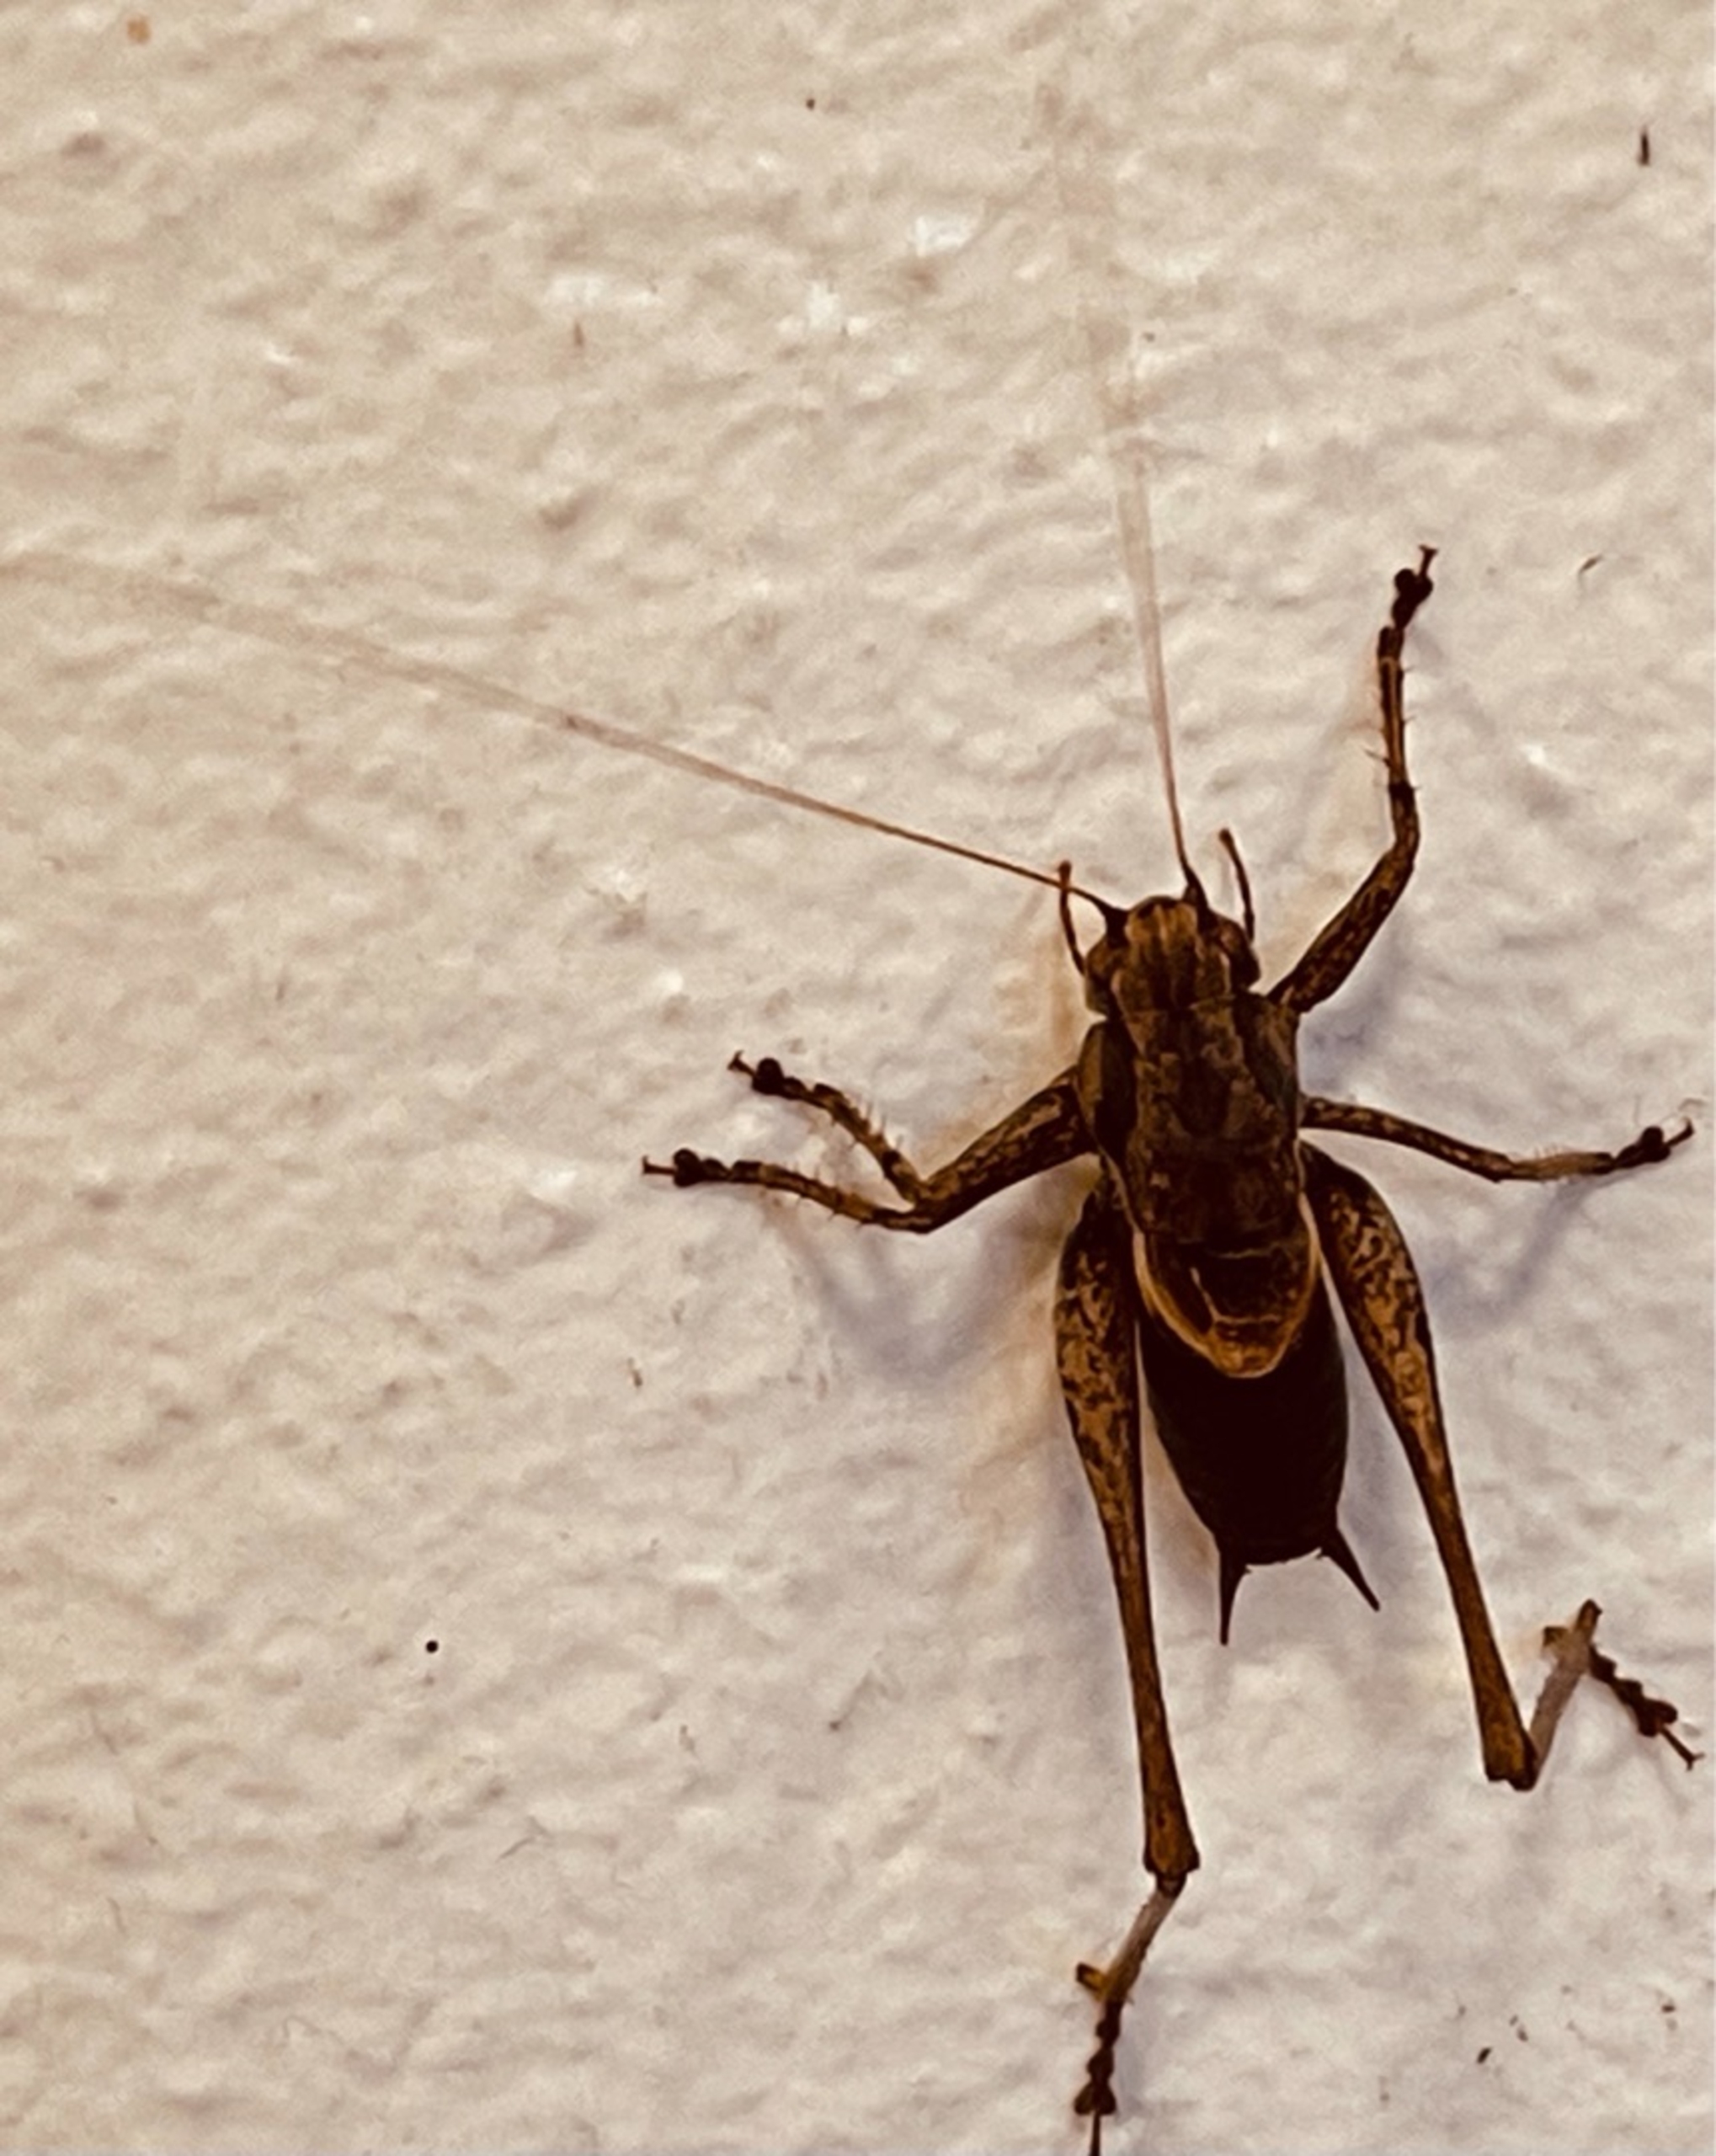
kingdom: Animalia
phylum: Arthropoda
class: Insecta
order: Orthoptera
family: Tettigoniidae
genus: Pholidoptera
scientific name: Pholidoptera griseoaptera
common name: Buskgræshoppe
